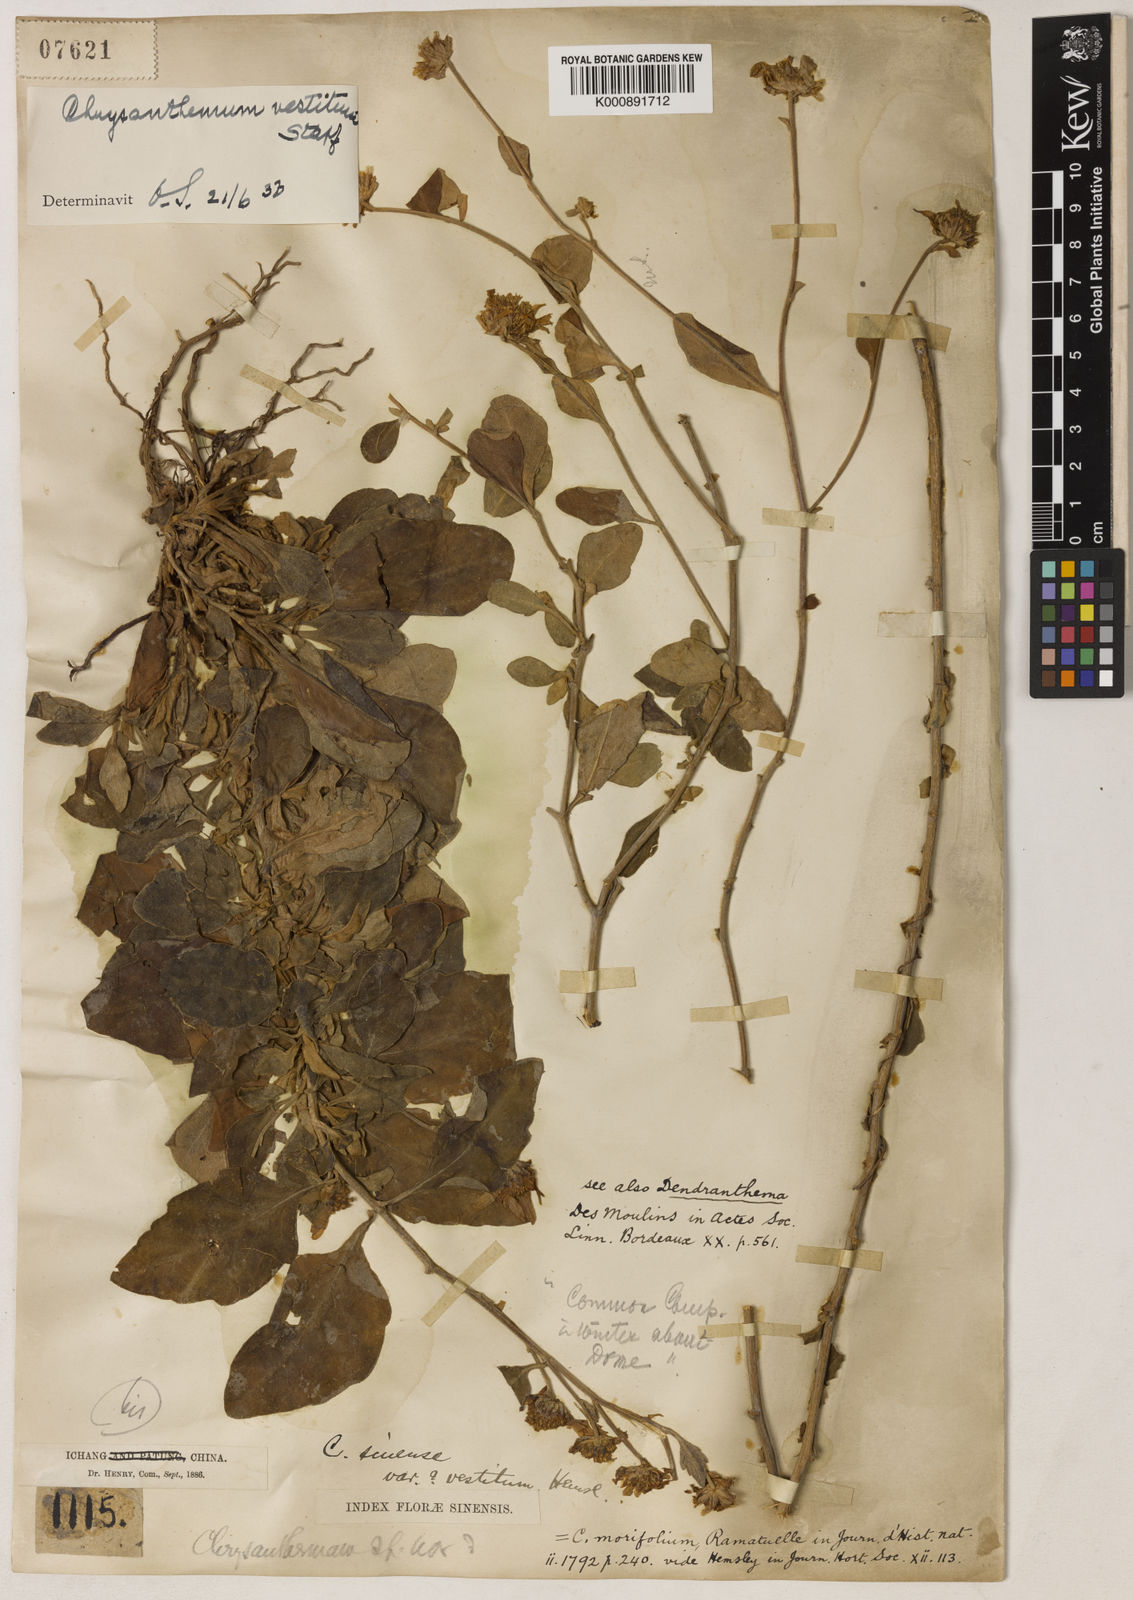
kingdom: Plantae
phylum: Tracheophyta
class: Magnoliopsida
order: Asterales
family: Asteraceae
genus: Chrysanthemum
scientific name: Chrysanthemum vestitum
